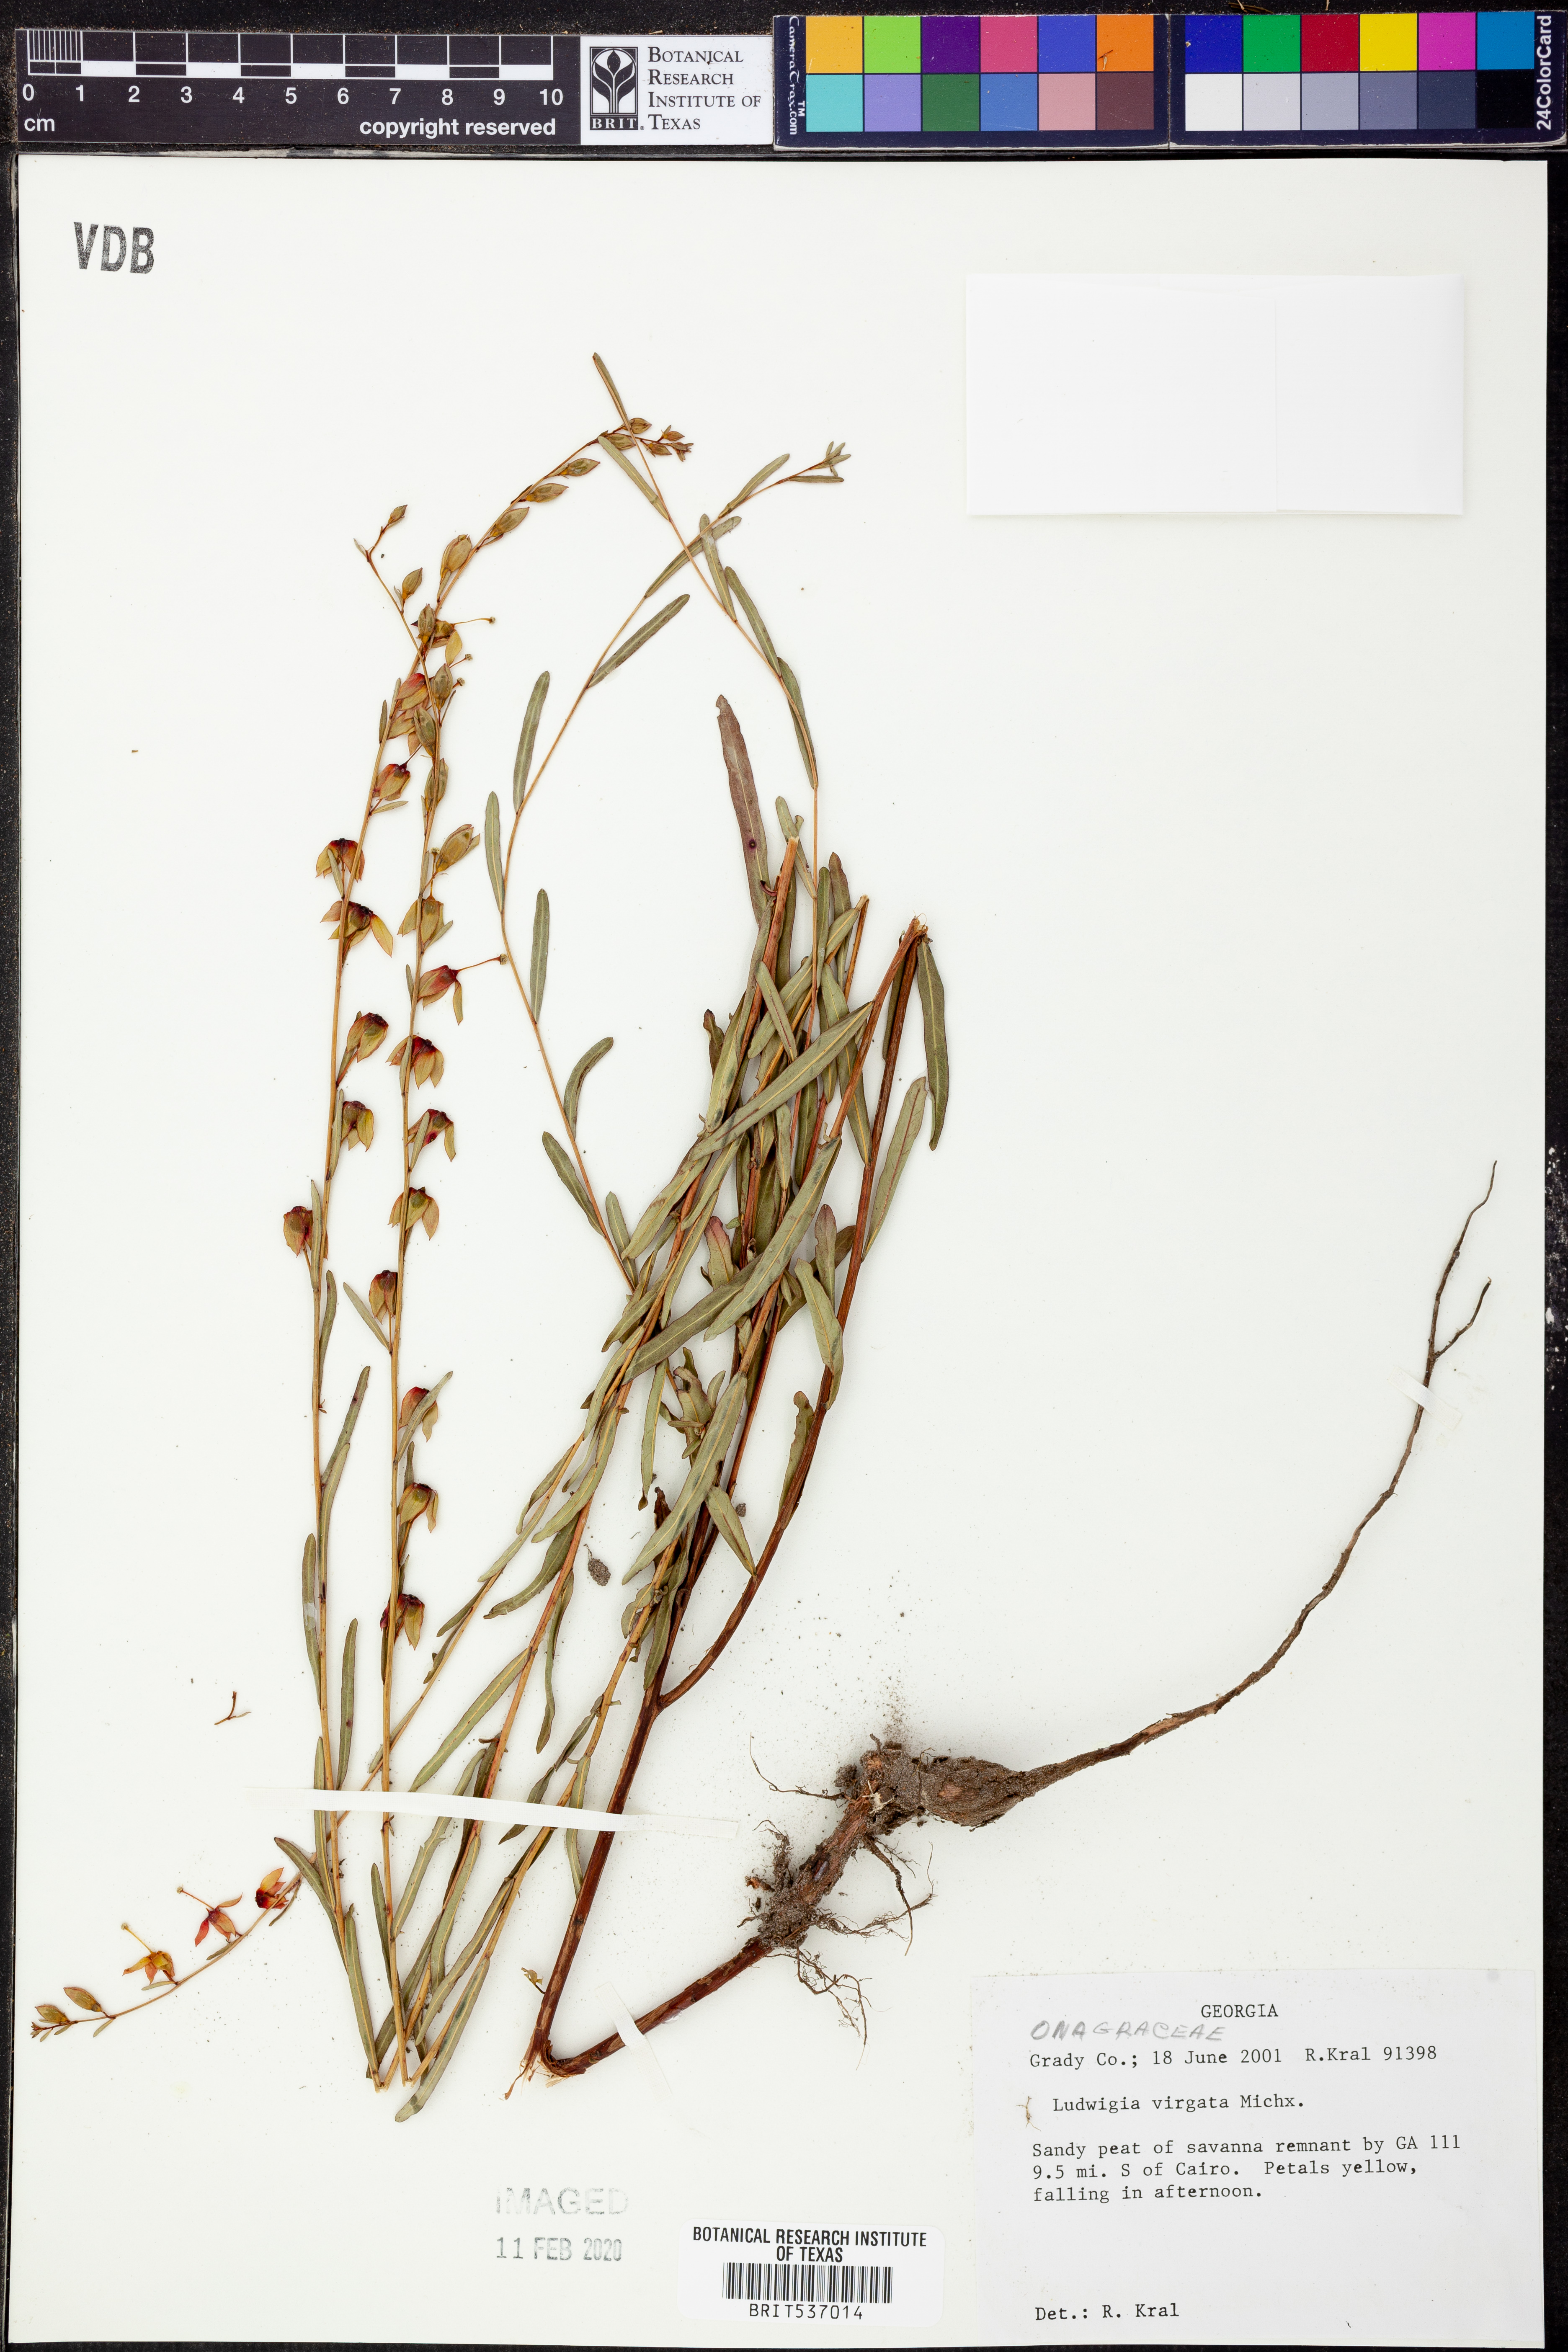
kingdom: Plantae
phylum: Tracheophyta
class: Magnoliopsida
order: Myrtales
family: Onagraceae
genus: Ludwigia
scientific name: Ludwigia virgata
